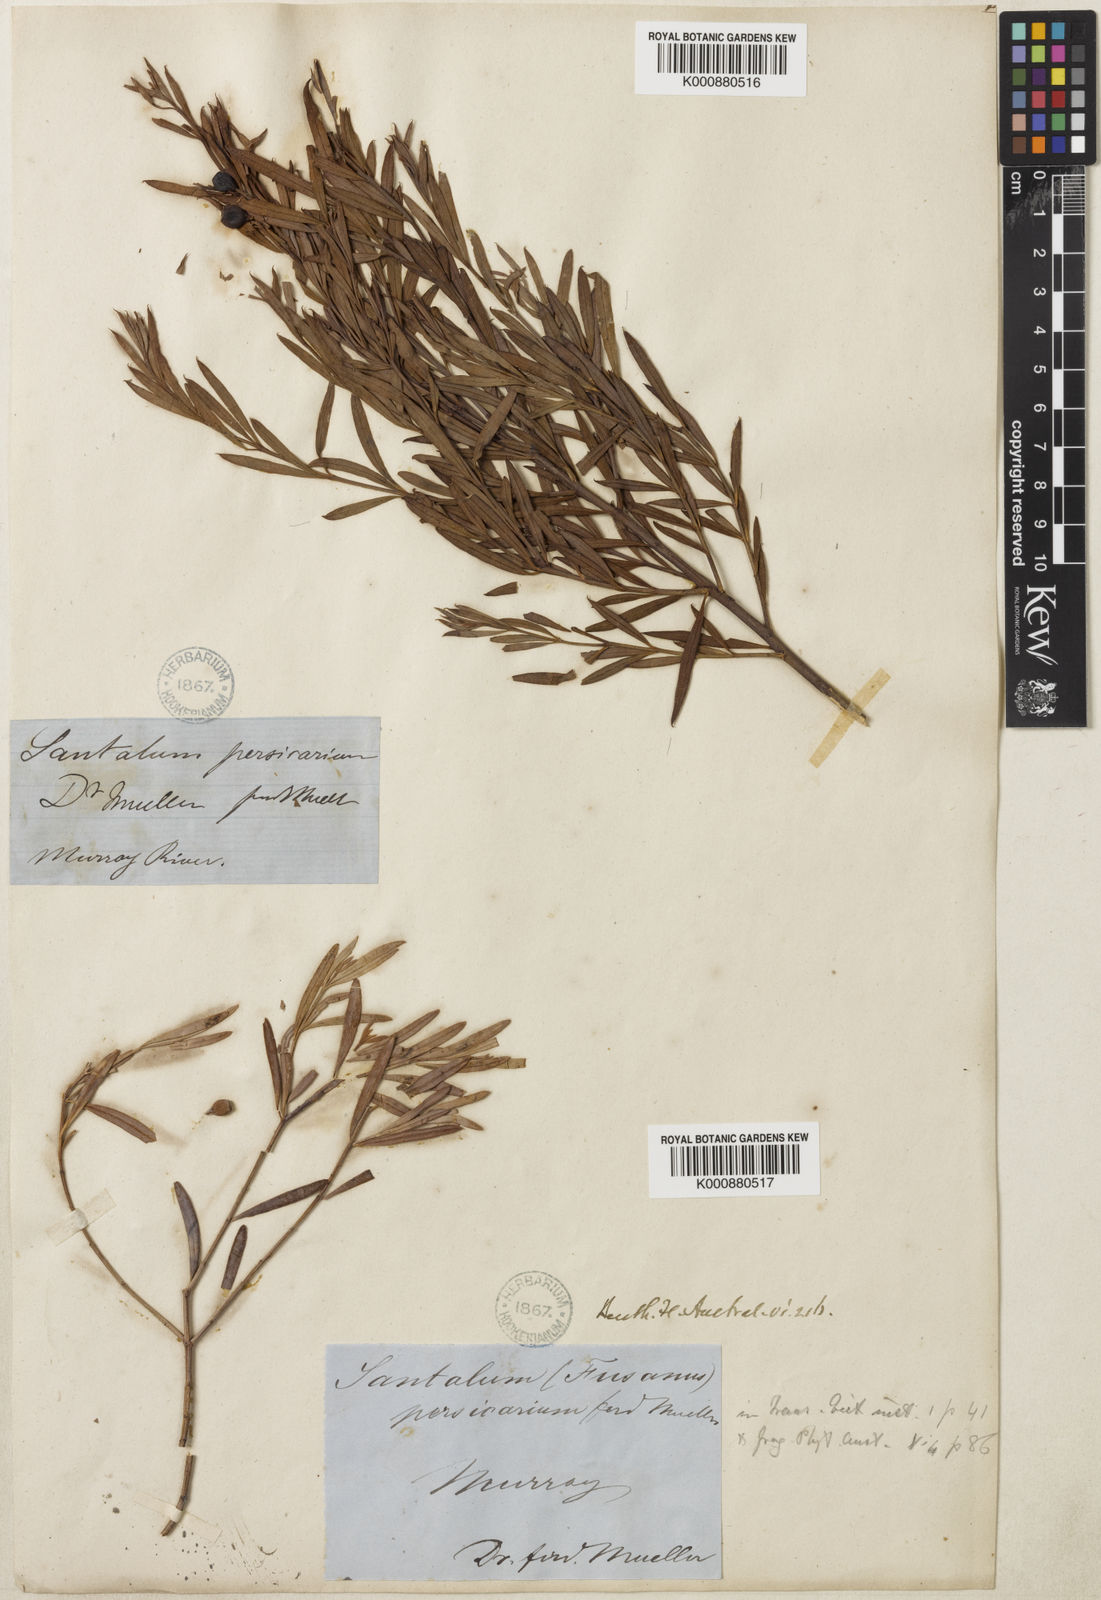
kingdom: Plantae
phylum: Tracheophyta
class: Magnoliopsida
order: Santalales
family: Santalaceae
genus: Santalum
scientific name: Santalum murrayanum
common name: Bitter quandong
